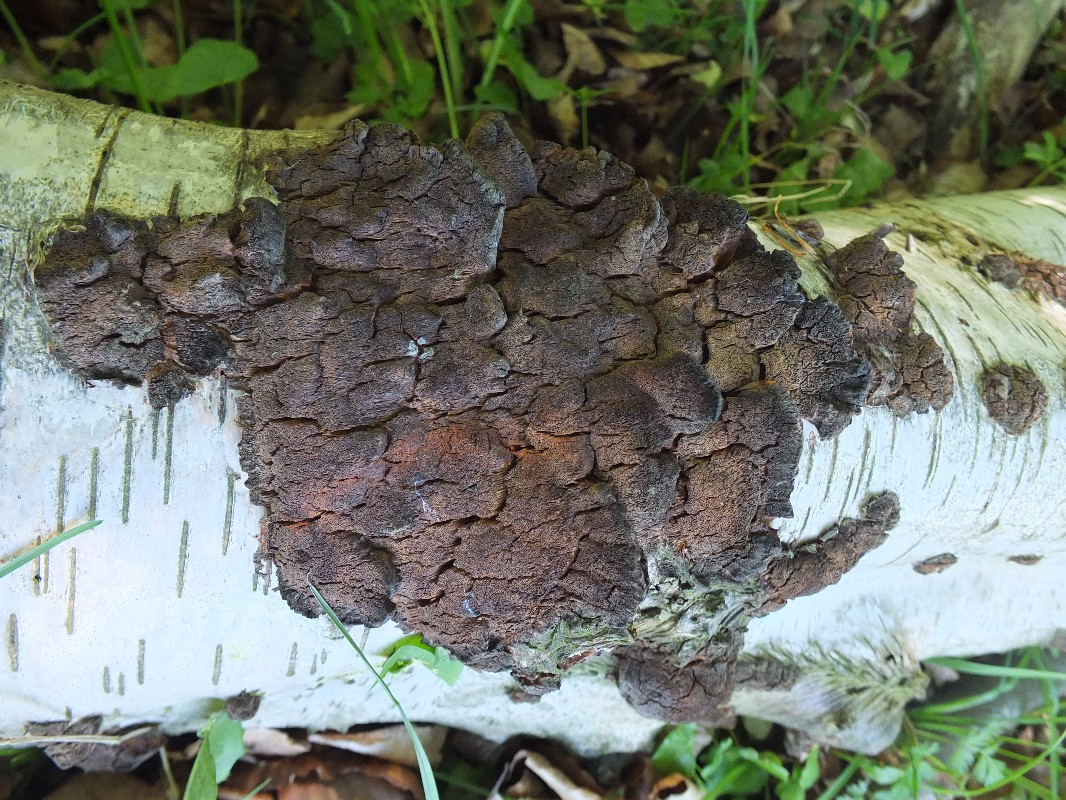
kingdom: Fungi
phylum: Basidiomycota
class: Agaricomycetes
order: Hymenochaetales
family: Hymenochaetaceae
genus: Xanthoporia
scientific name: Xanthoporia radiata
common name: elle-spejlporesvamp
